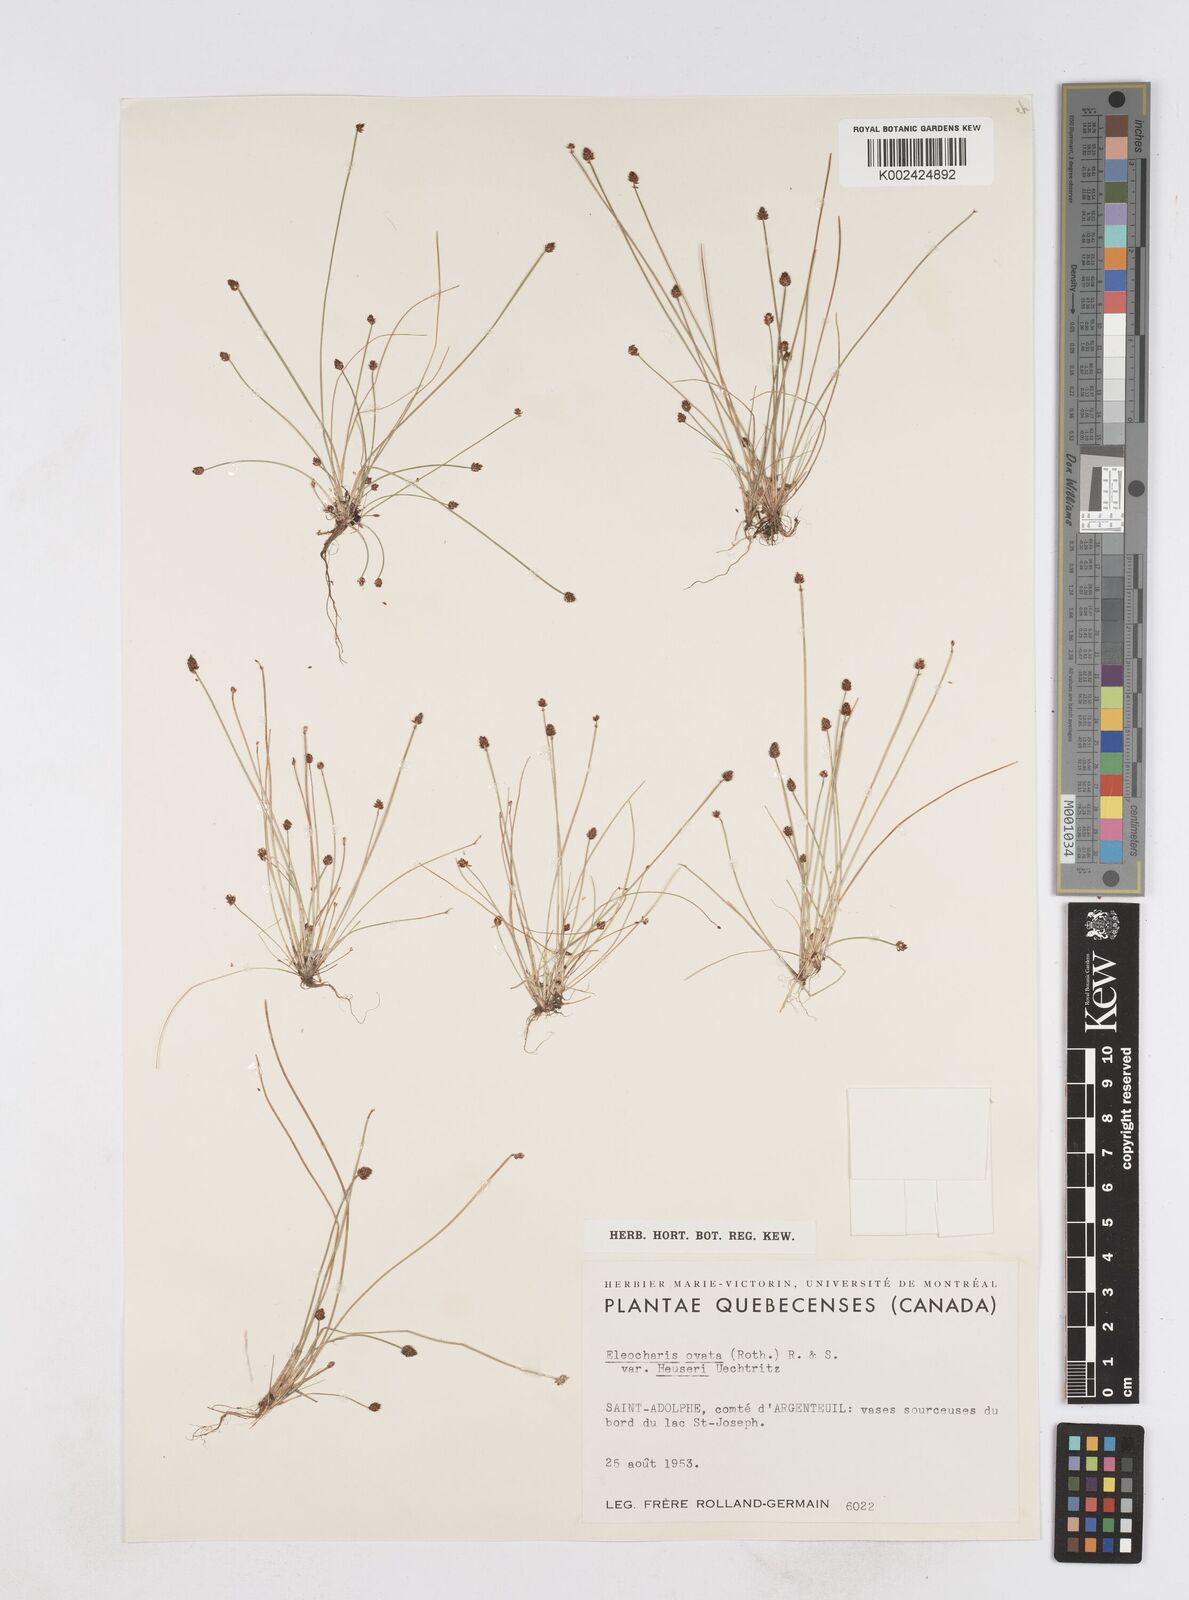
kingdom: Plantae
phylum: Tracheophyta
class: Liliopsida
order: Poales
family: Cyperaceae
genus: Eleocharis
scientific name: Eleocharis ovata
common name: Oval spike-rush
